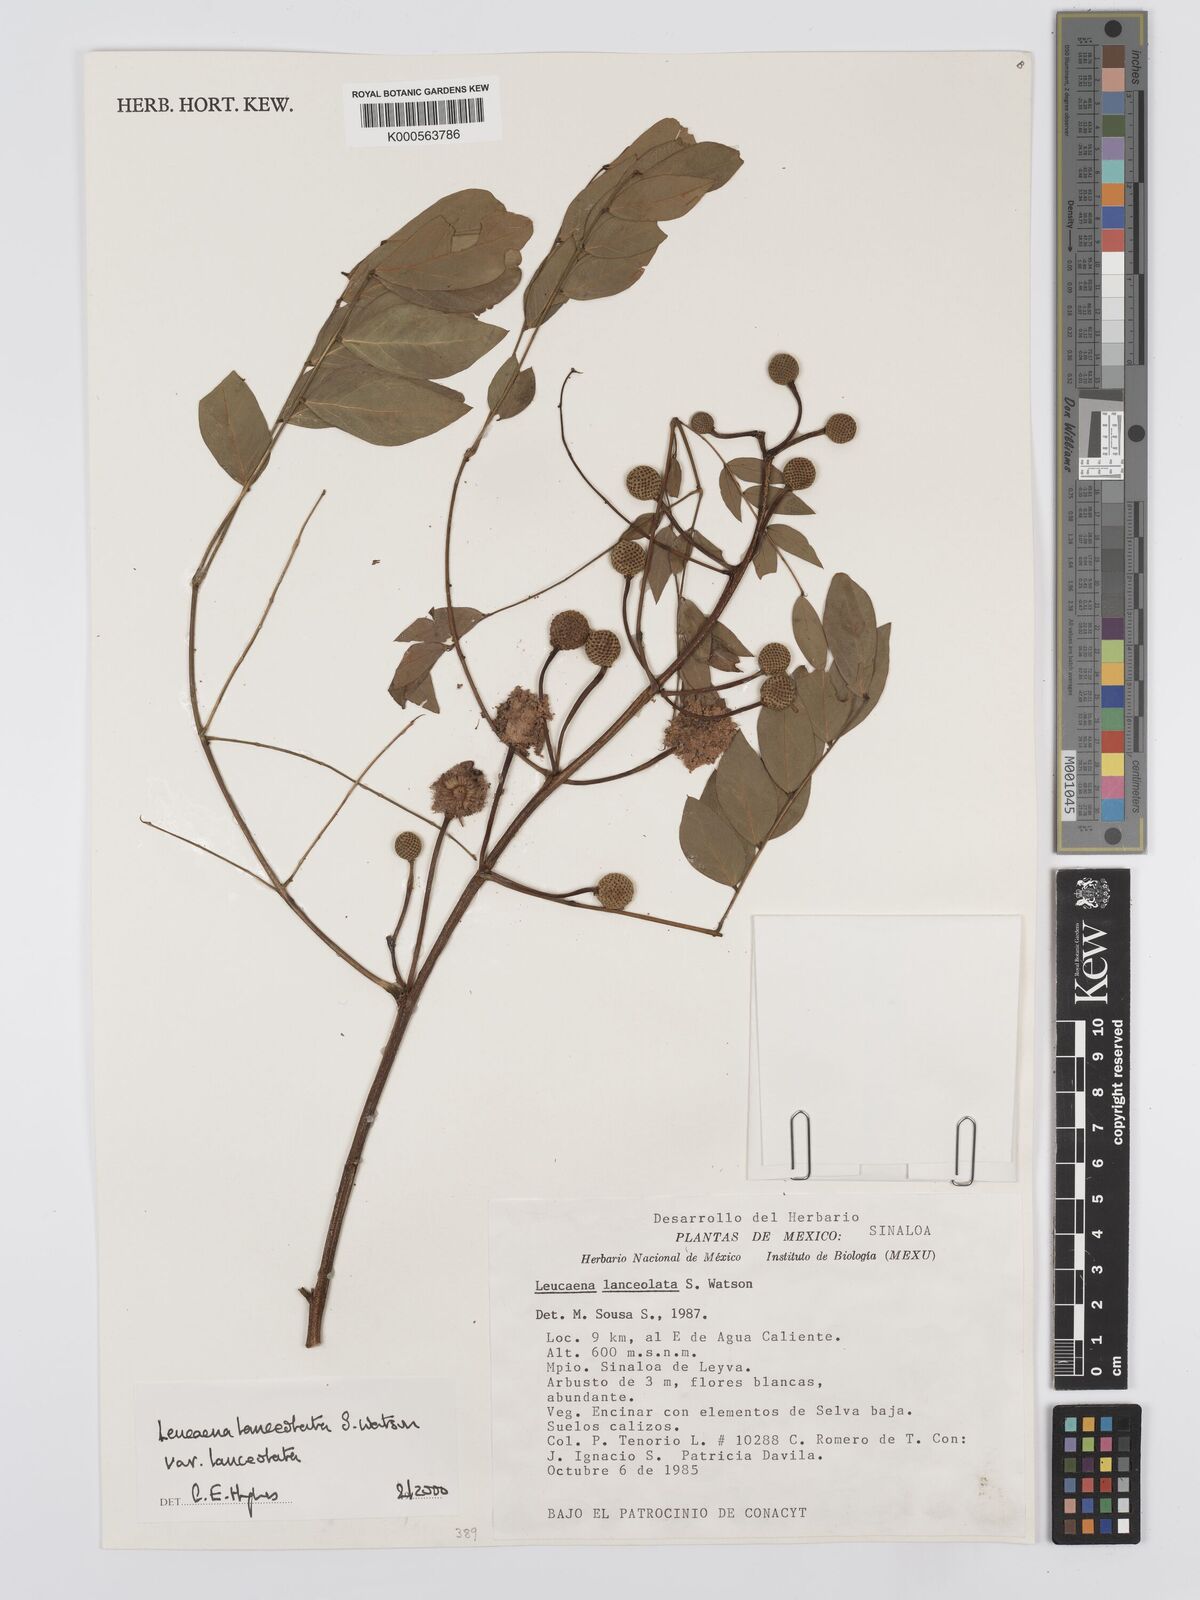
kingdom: Plantae
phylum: Tracheophyta
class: Magnoliopsida
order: Fabales
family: Fabaceae
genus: Leucaena
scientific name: Leucaena lanceolata
